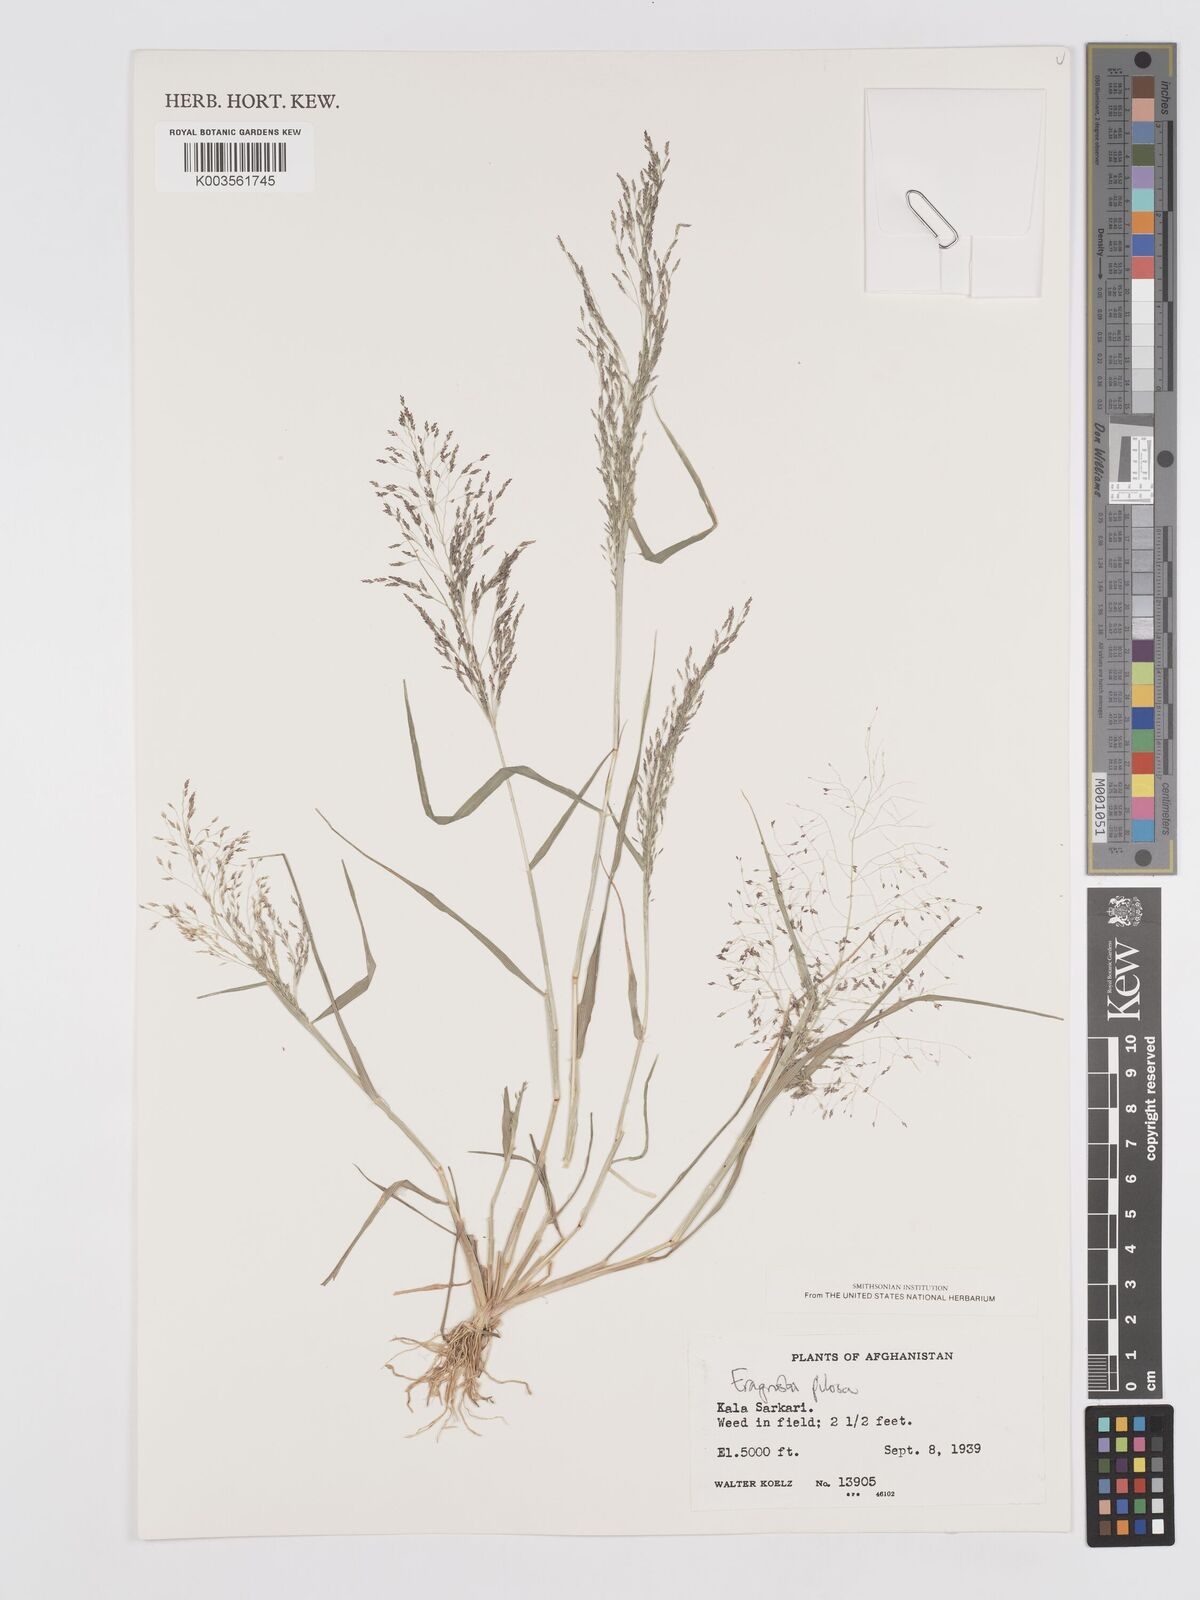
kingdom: Plantae
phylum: Tracheophyta
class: Liliopsida
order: Poales
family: Poaceae
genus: Eragrostis
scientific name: Eragrostis pilosa
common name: Indian lovegrass
